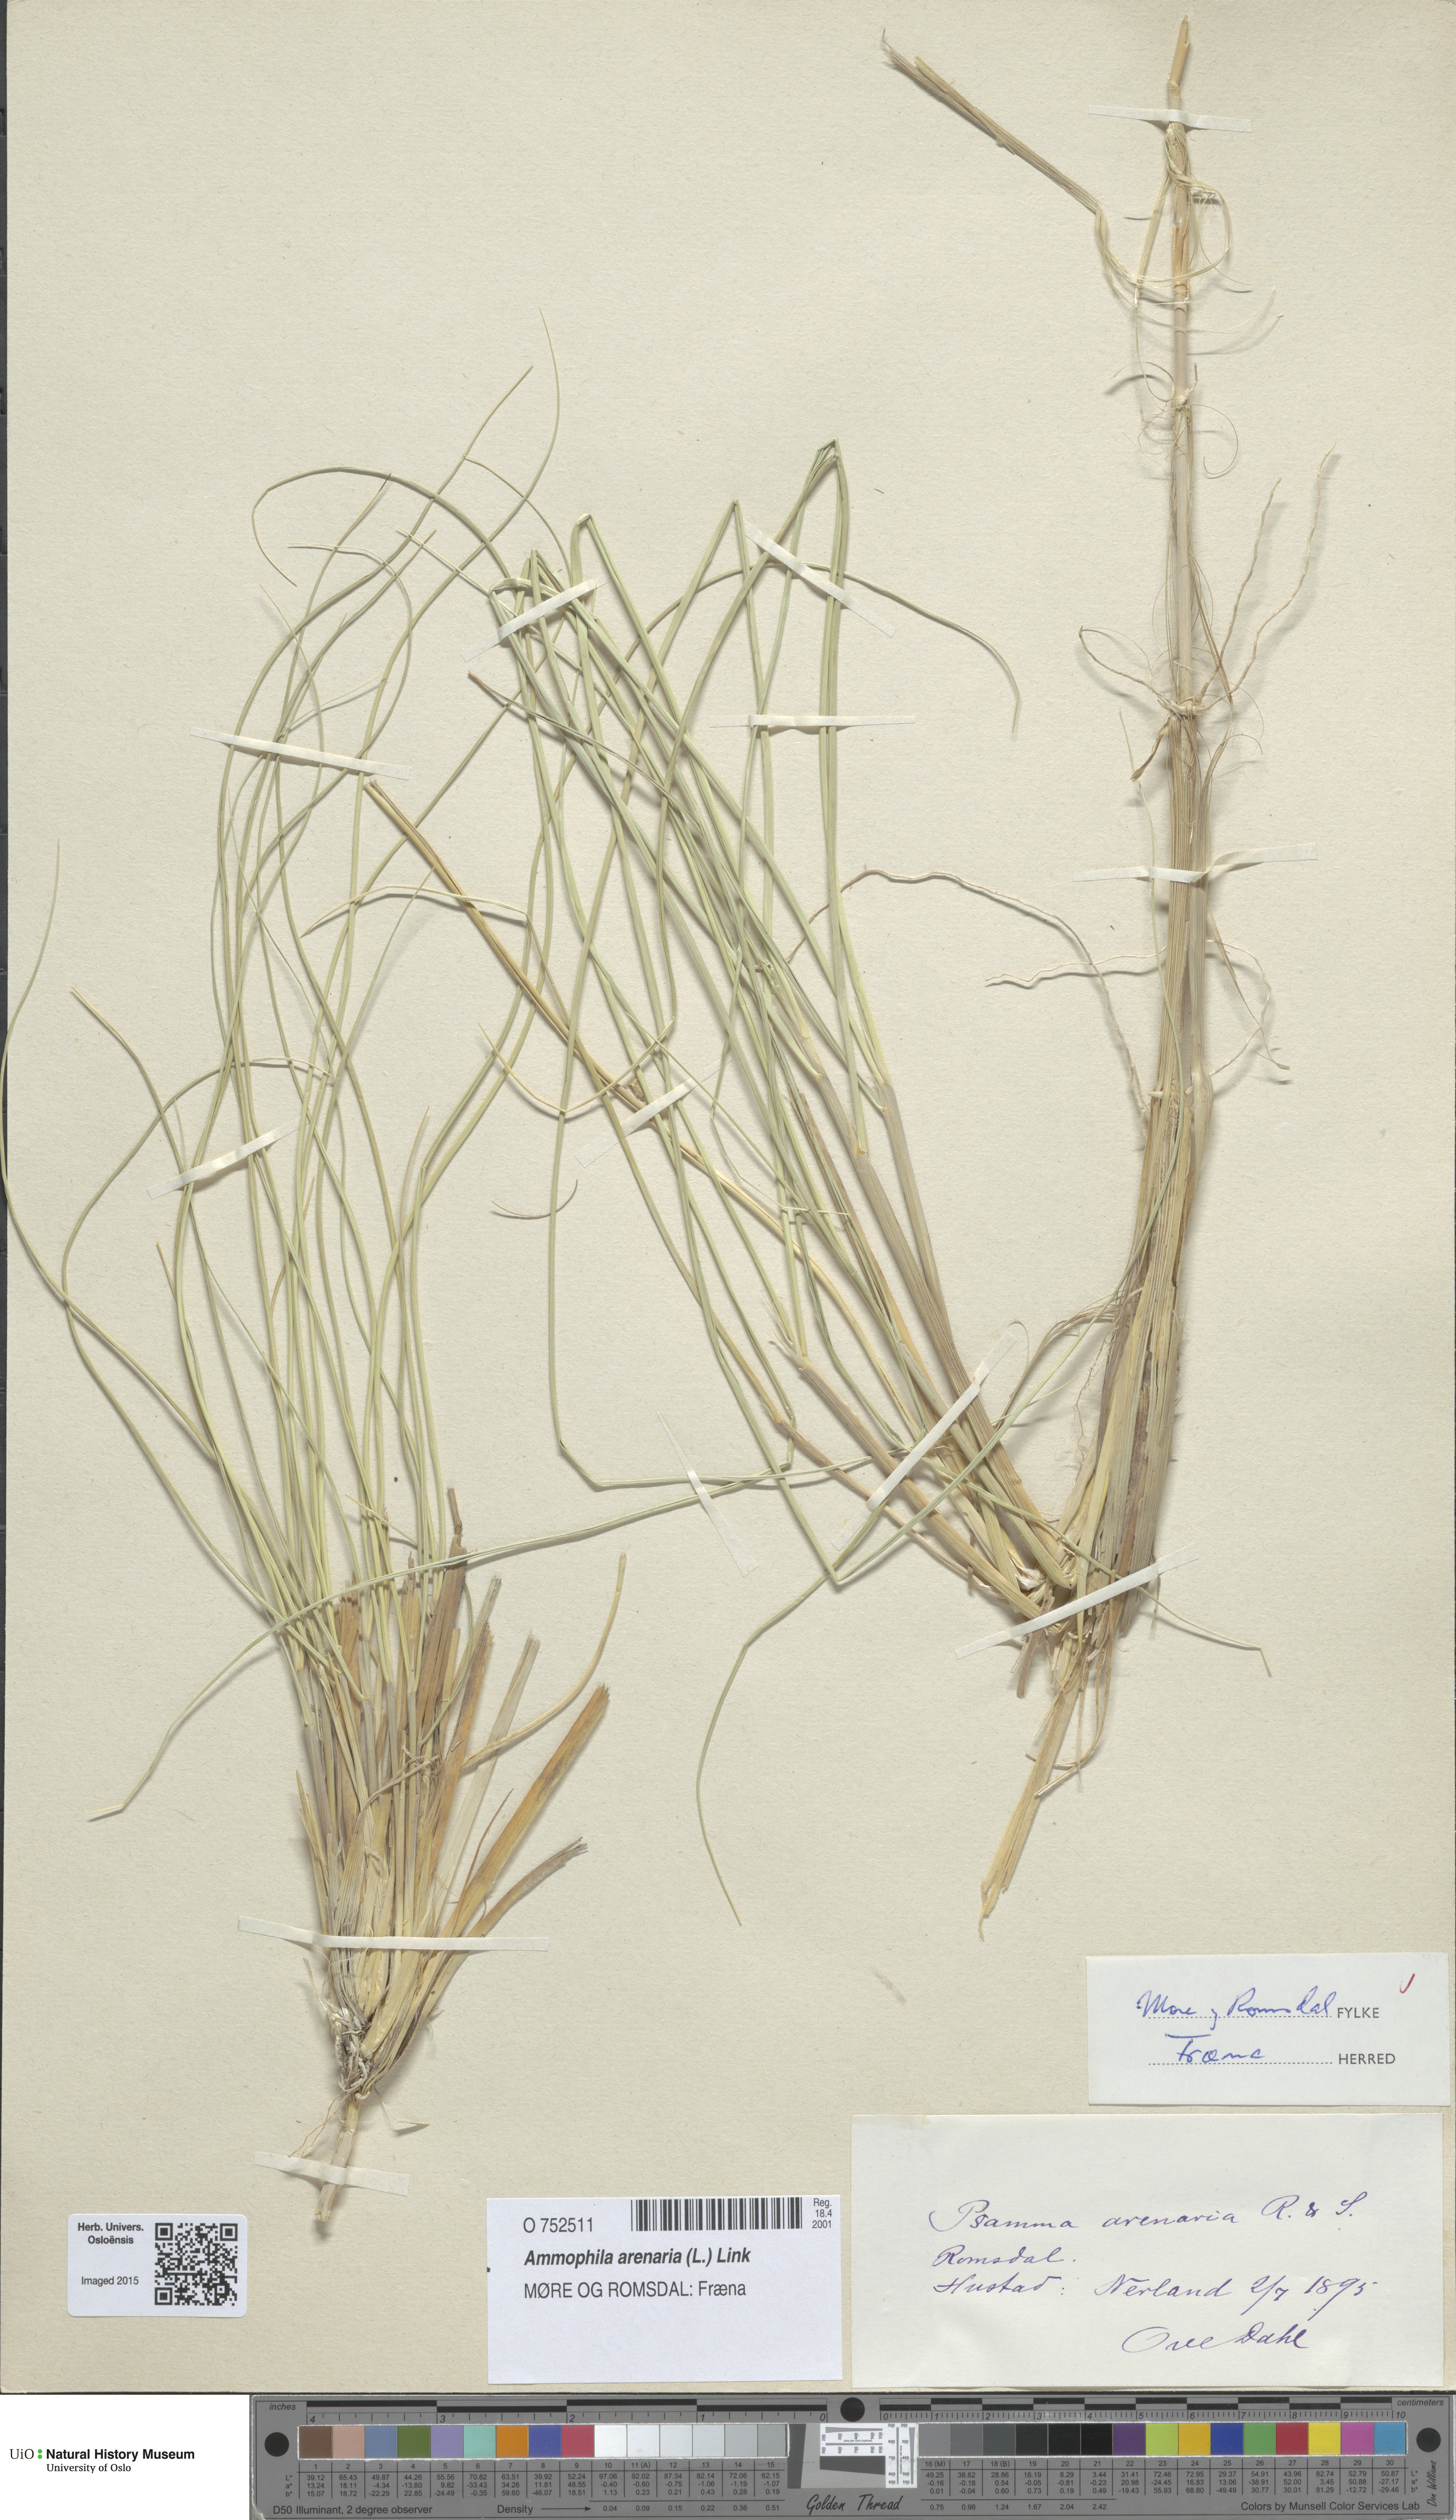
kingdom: Plantae
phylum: Tracheophyta
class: Liliopsida
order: Poales
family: Poaceae
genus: Calamagrostis
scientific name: Calamagrostis arenaria
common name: European beachgrass
